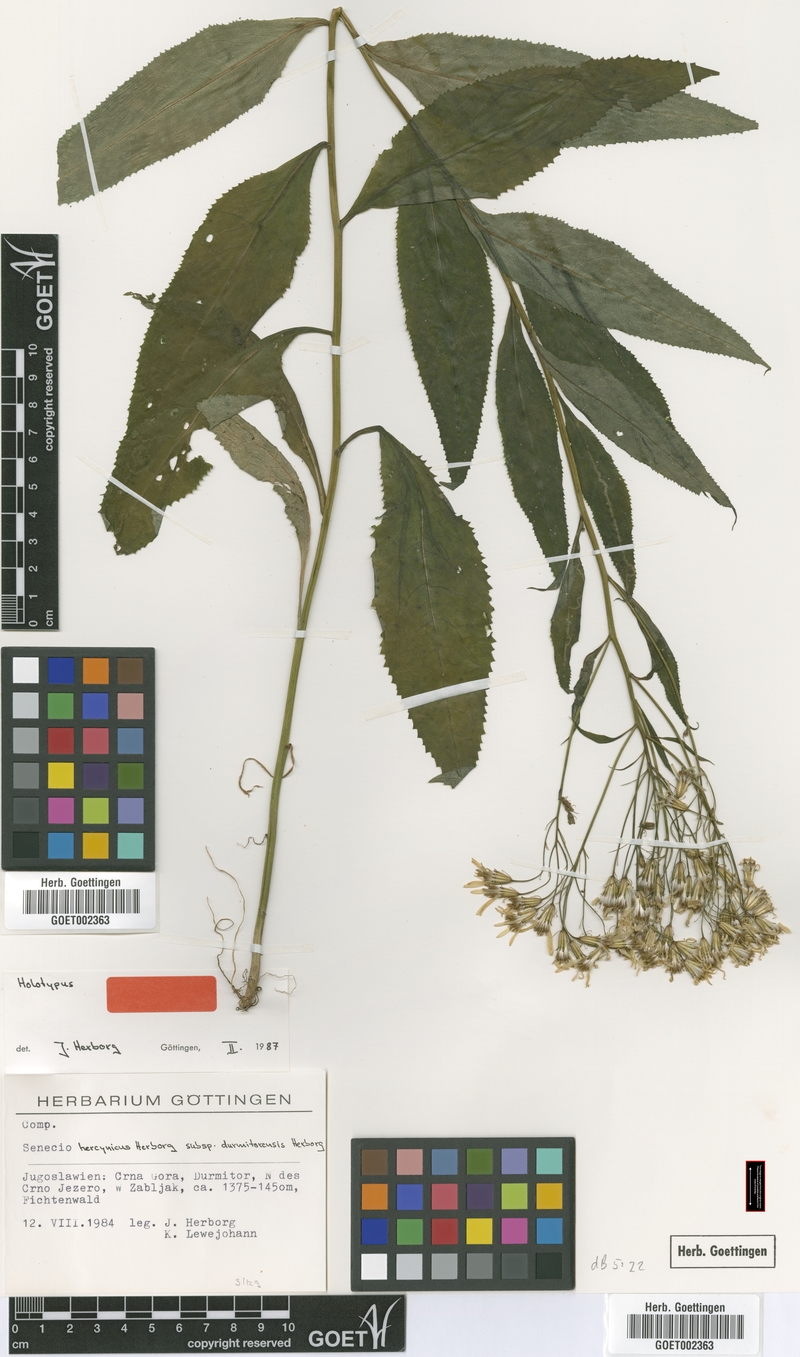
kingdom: Plantae
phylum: Tracheophyta
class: Magnoliopsida
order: Asterales
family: Asteraceae
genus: Senecio
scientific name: Senecio hercynicus
